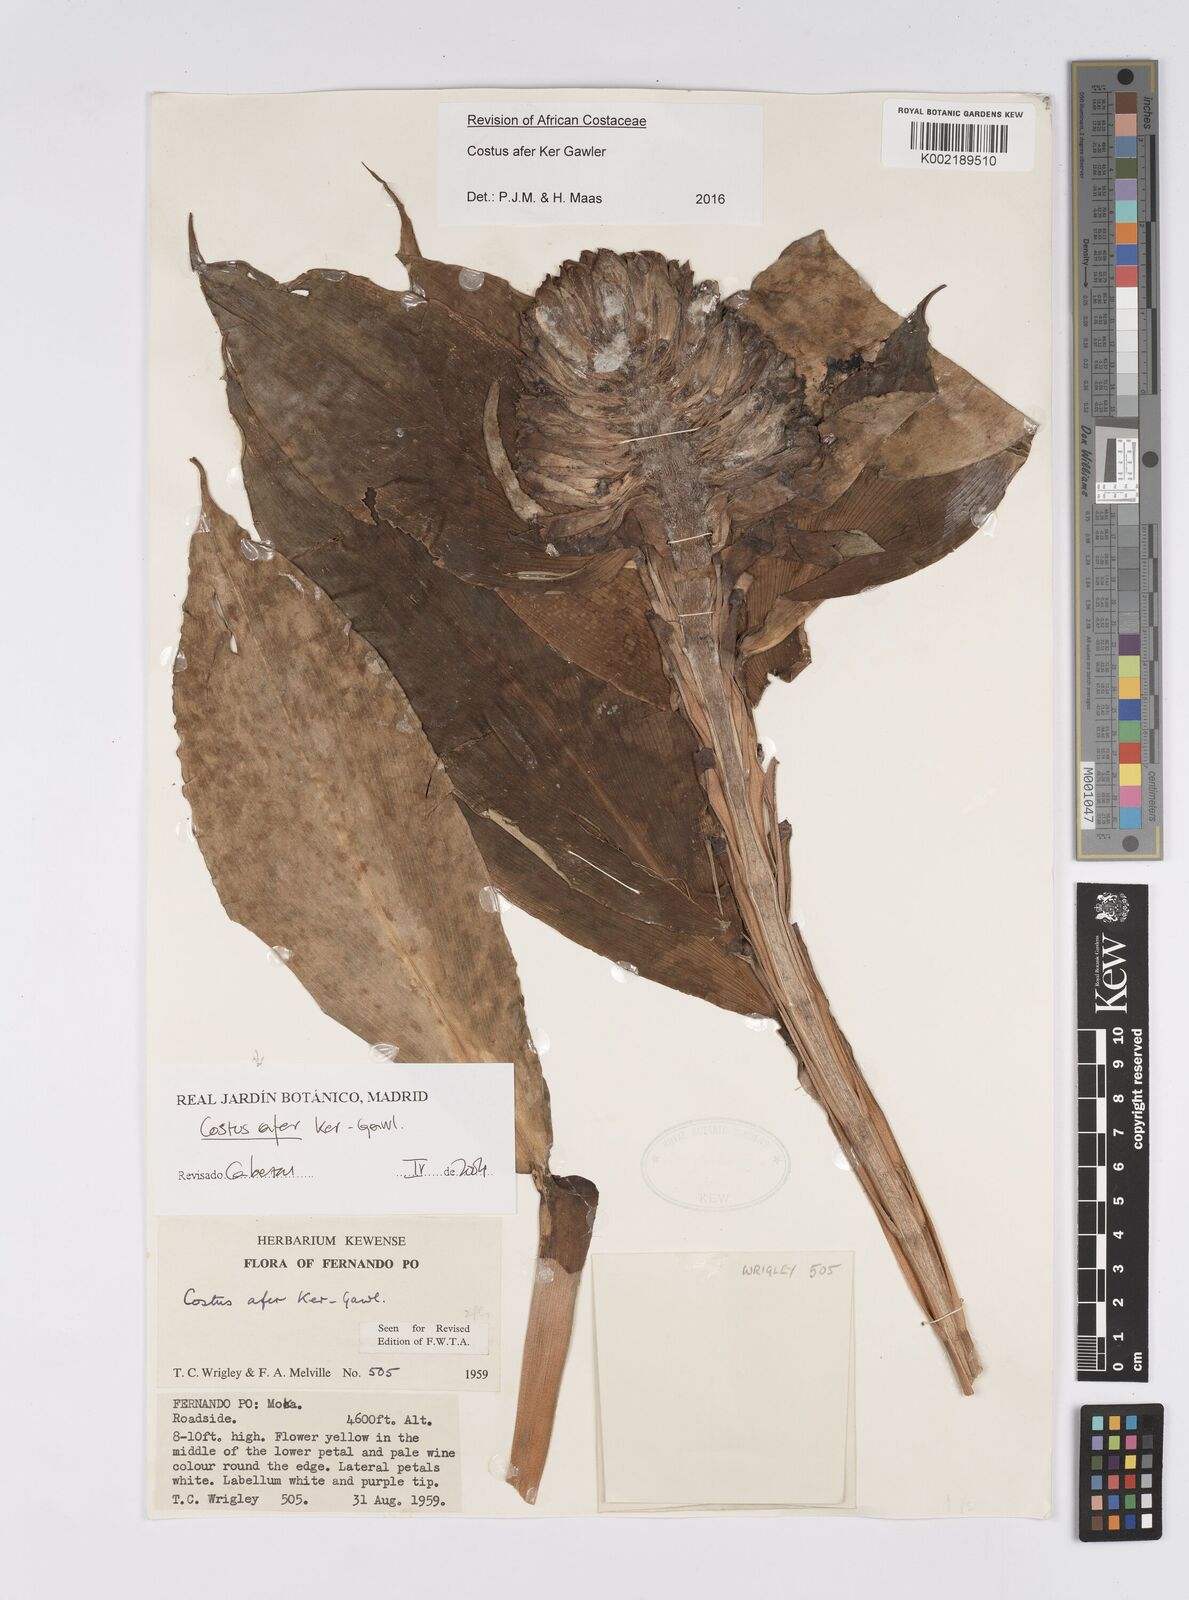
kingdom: Plantae
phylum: Tracheophyta
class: Liliopsida
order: Zingiberales
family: Costaceae
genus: Costus
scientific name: Costus afer
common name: Spiral-ginger
